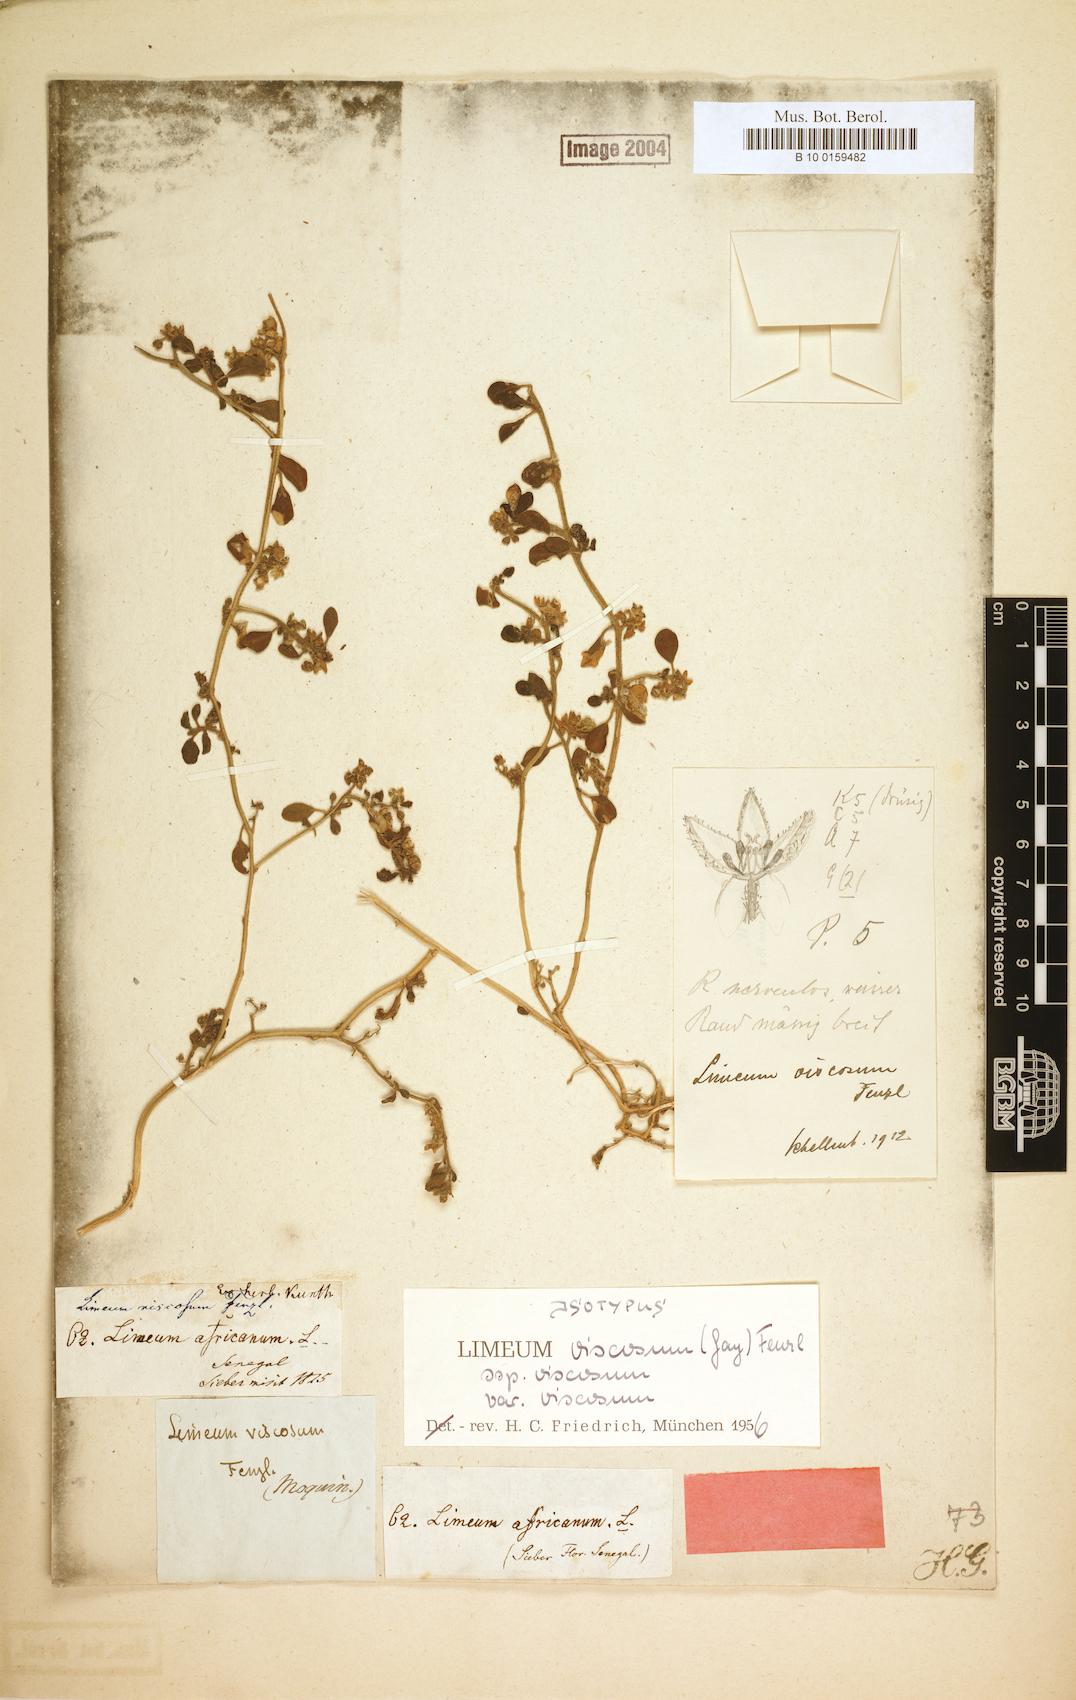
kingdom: Plantae
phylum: Tracheophyta
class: Magnoliopsida
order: Caryophyllales
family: Limeaceae
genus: Limeum
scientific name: Limeum viscosum
